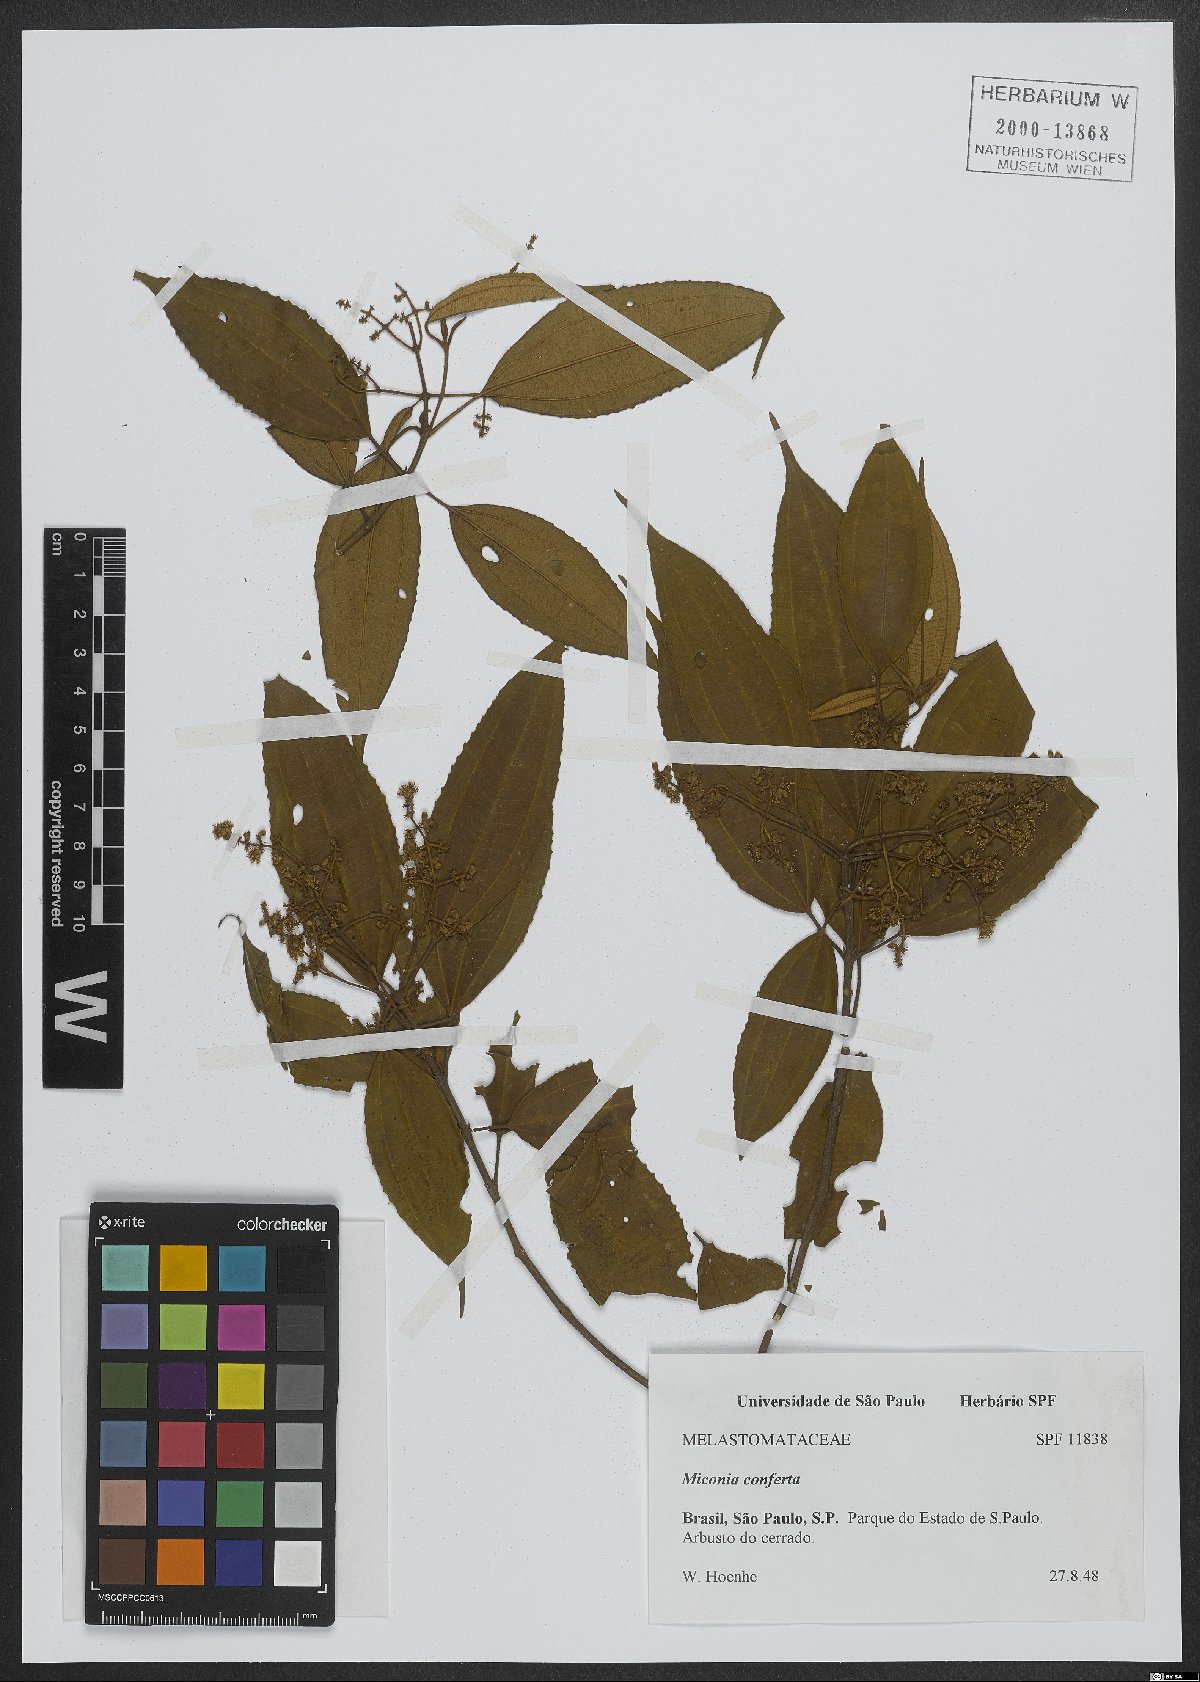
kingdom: Plantae
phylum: Tracheophyta
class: Magnoliopsida
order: Myrtales
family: Melastomataceae
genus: Miconia
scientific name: Miconia inconspicua
